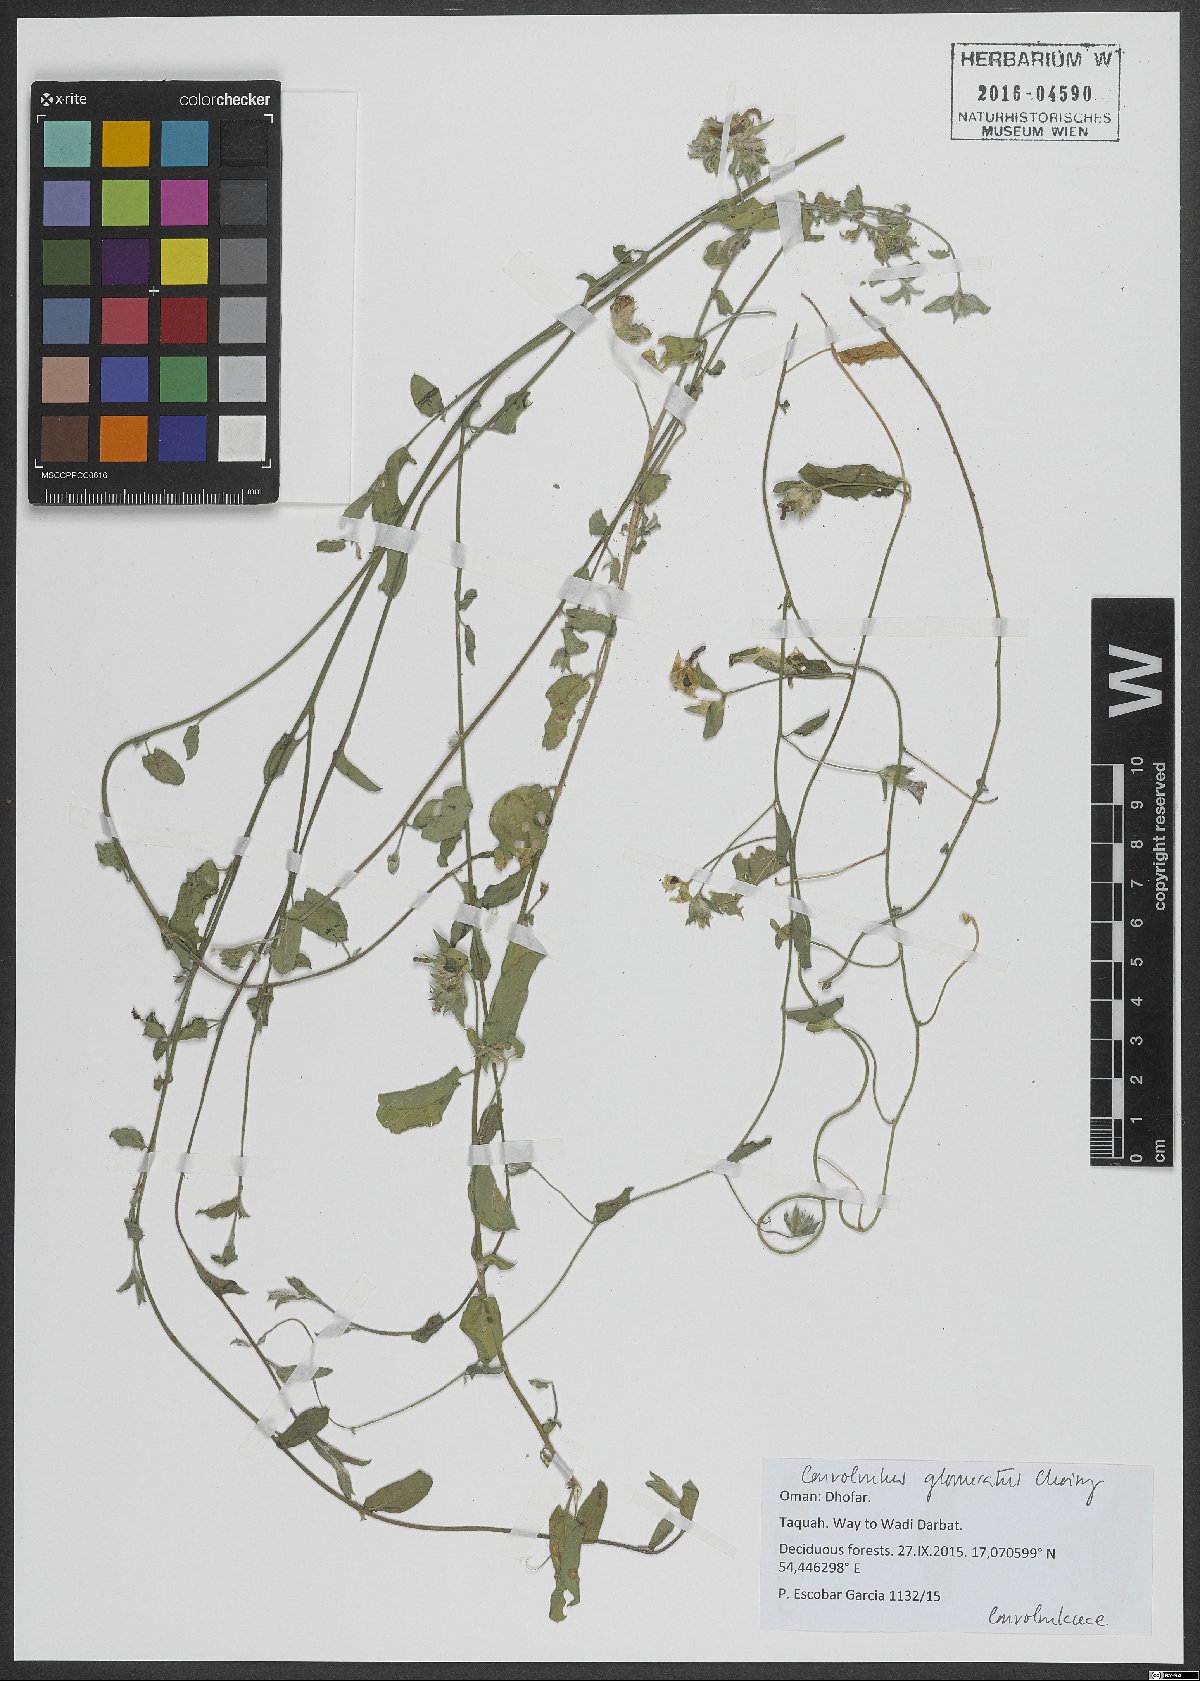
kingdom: Plantae
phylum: Tracheophyta
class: Magnoliopsida
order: Solanales
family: Convolvulaceae
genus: Convolvulus
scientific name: Convolvulus glomeratus
